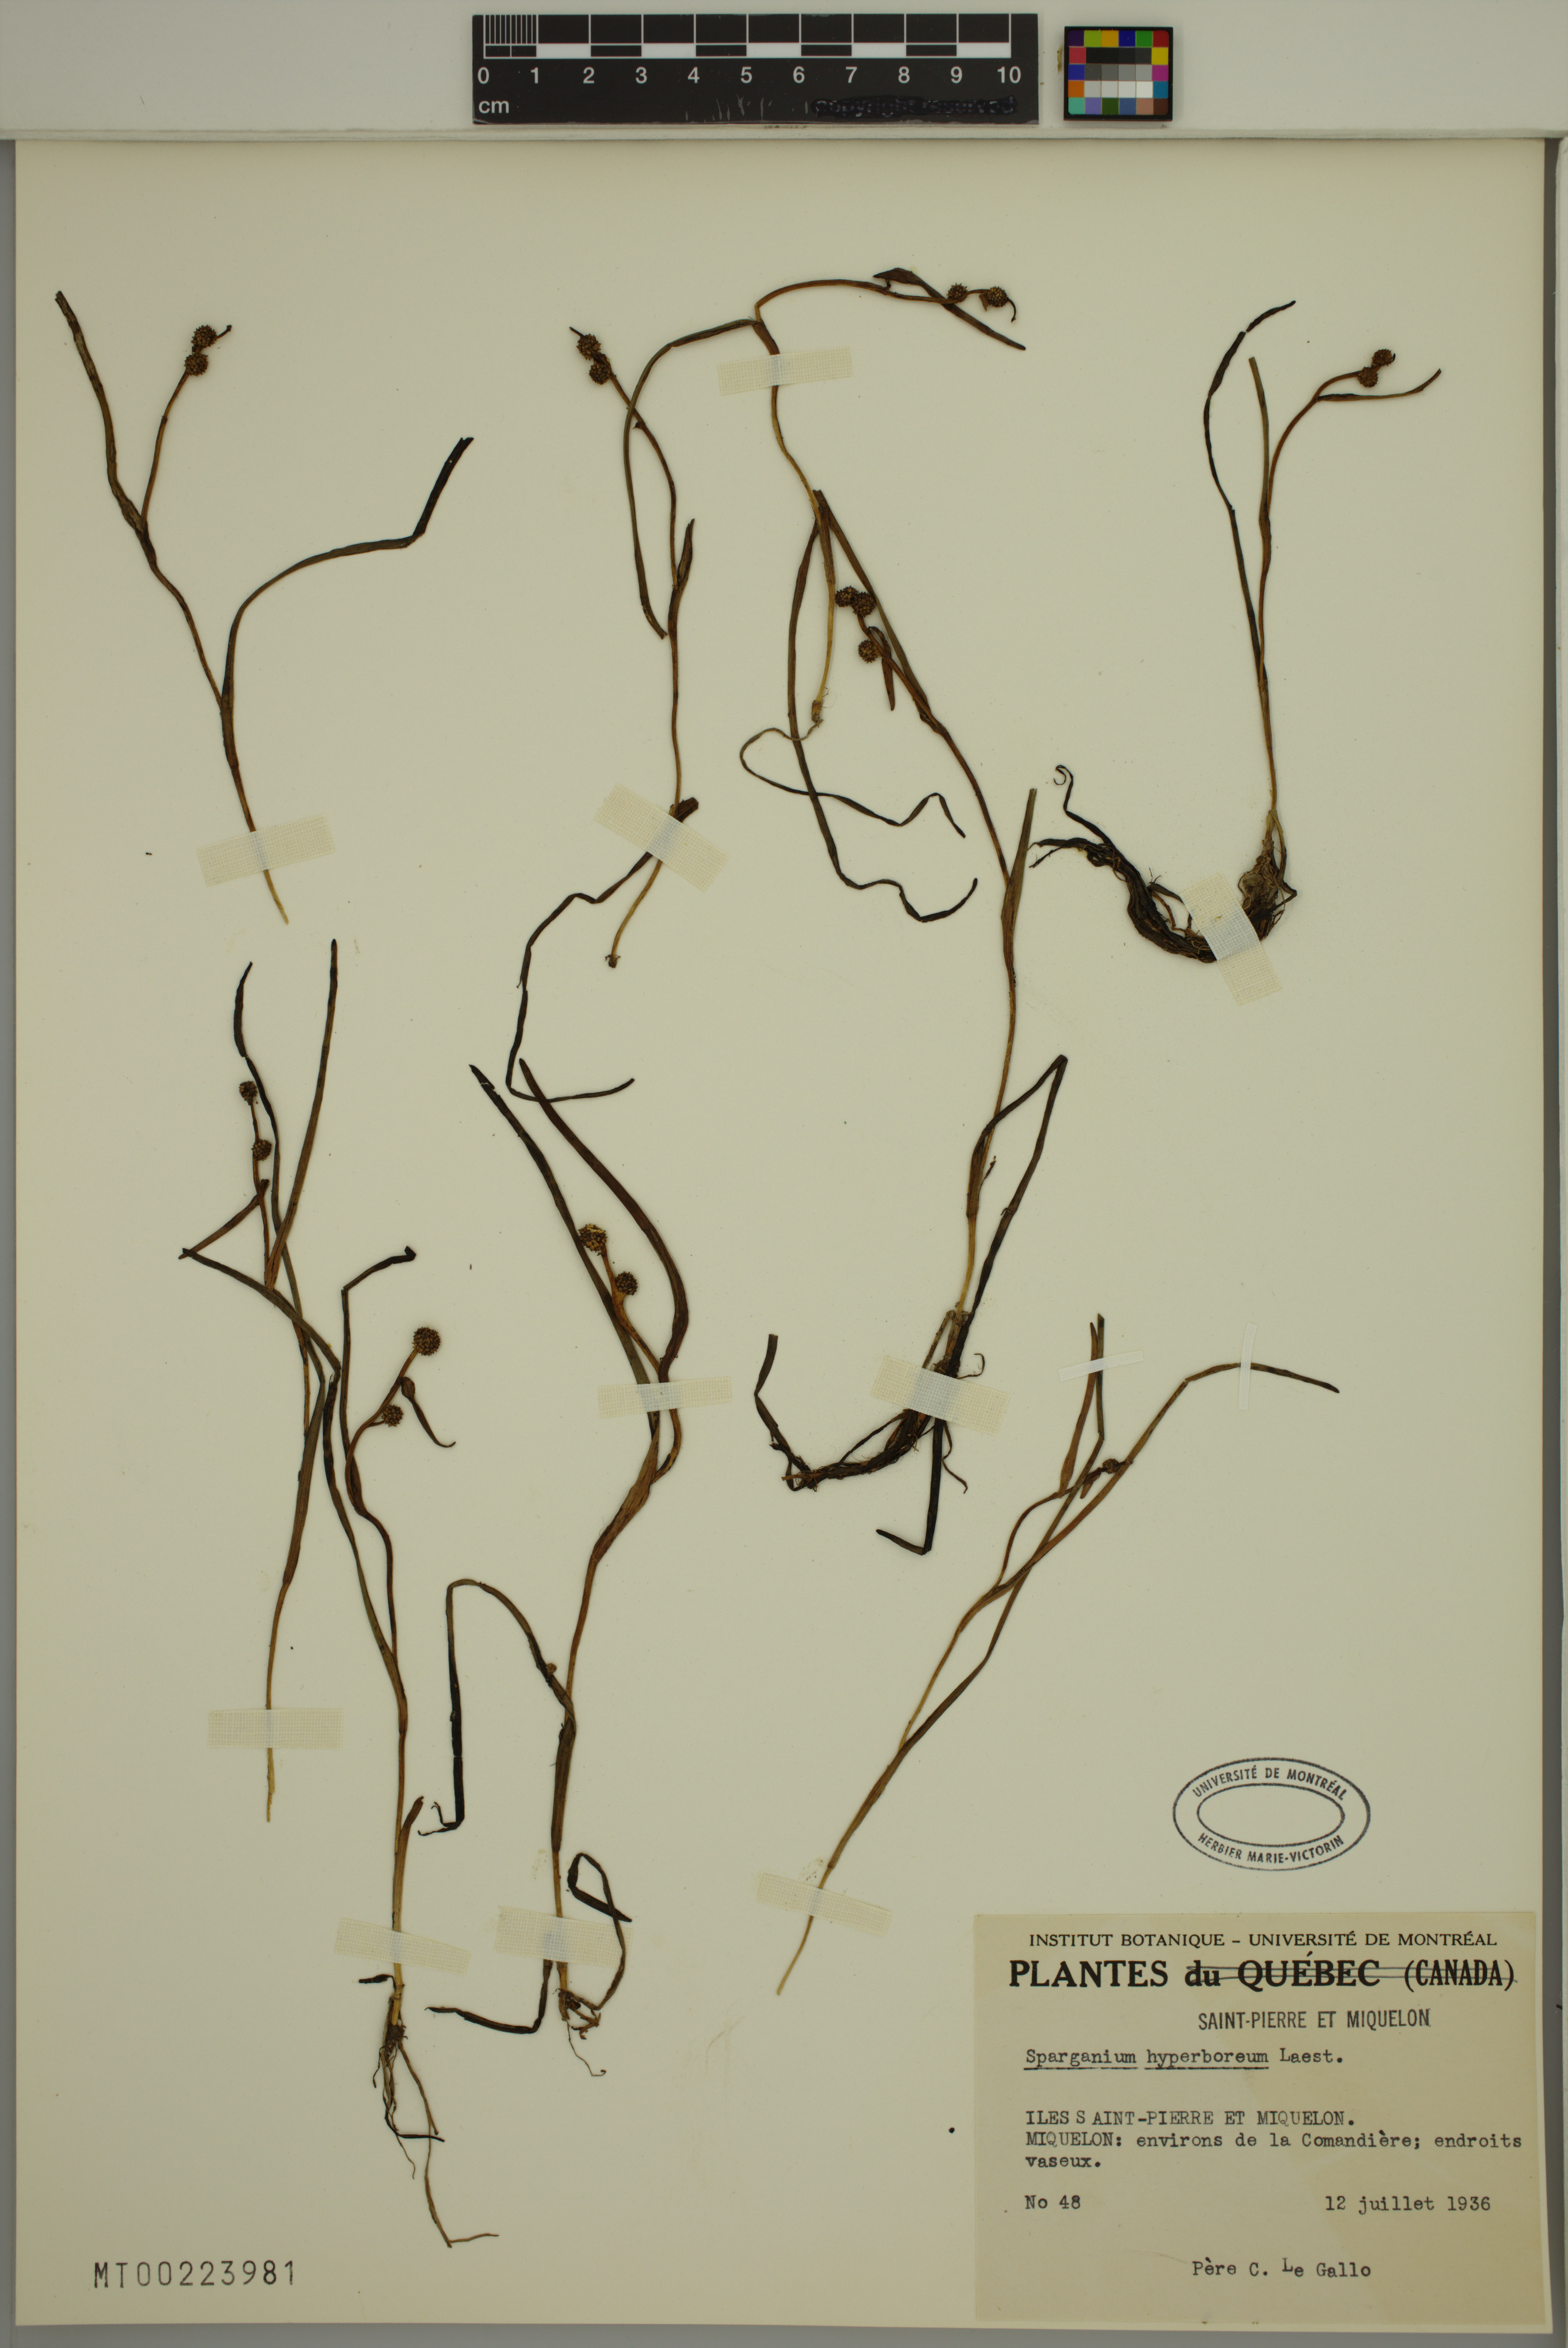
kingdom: Plantae
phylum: Tracheophyta
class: Liliopsida
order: Poales
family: Typhaceae
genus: Sparganium
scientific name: Sparganium hyperboreum
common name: Arctic burreed
